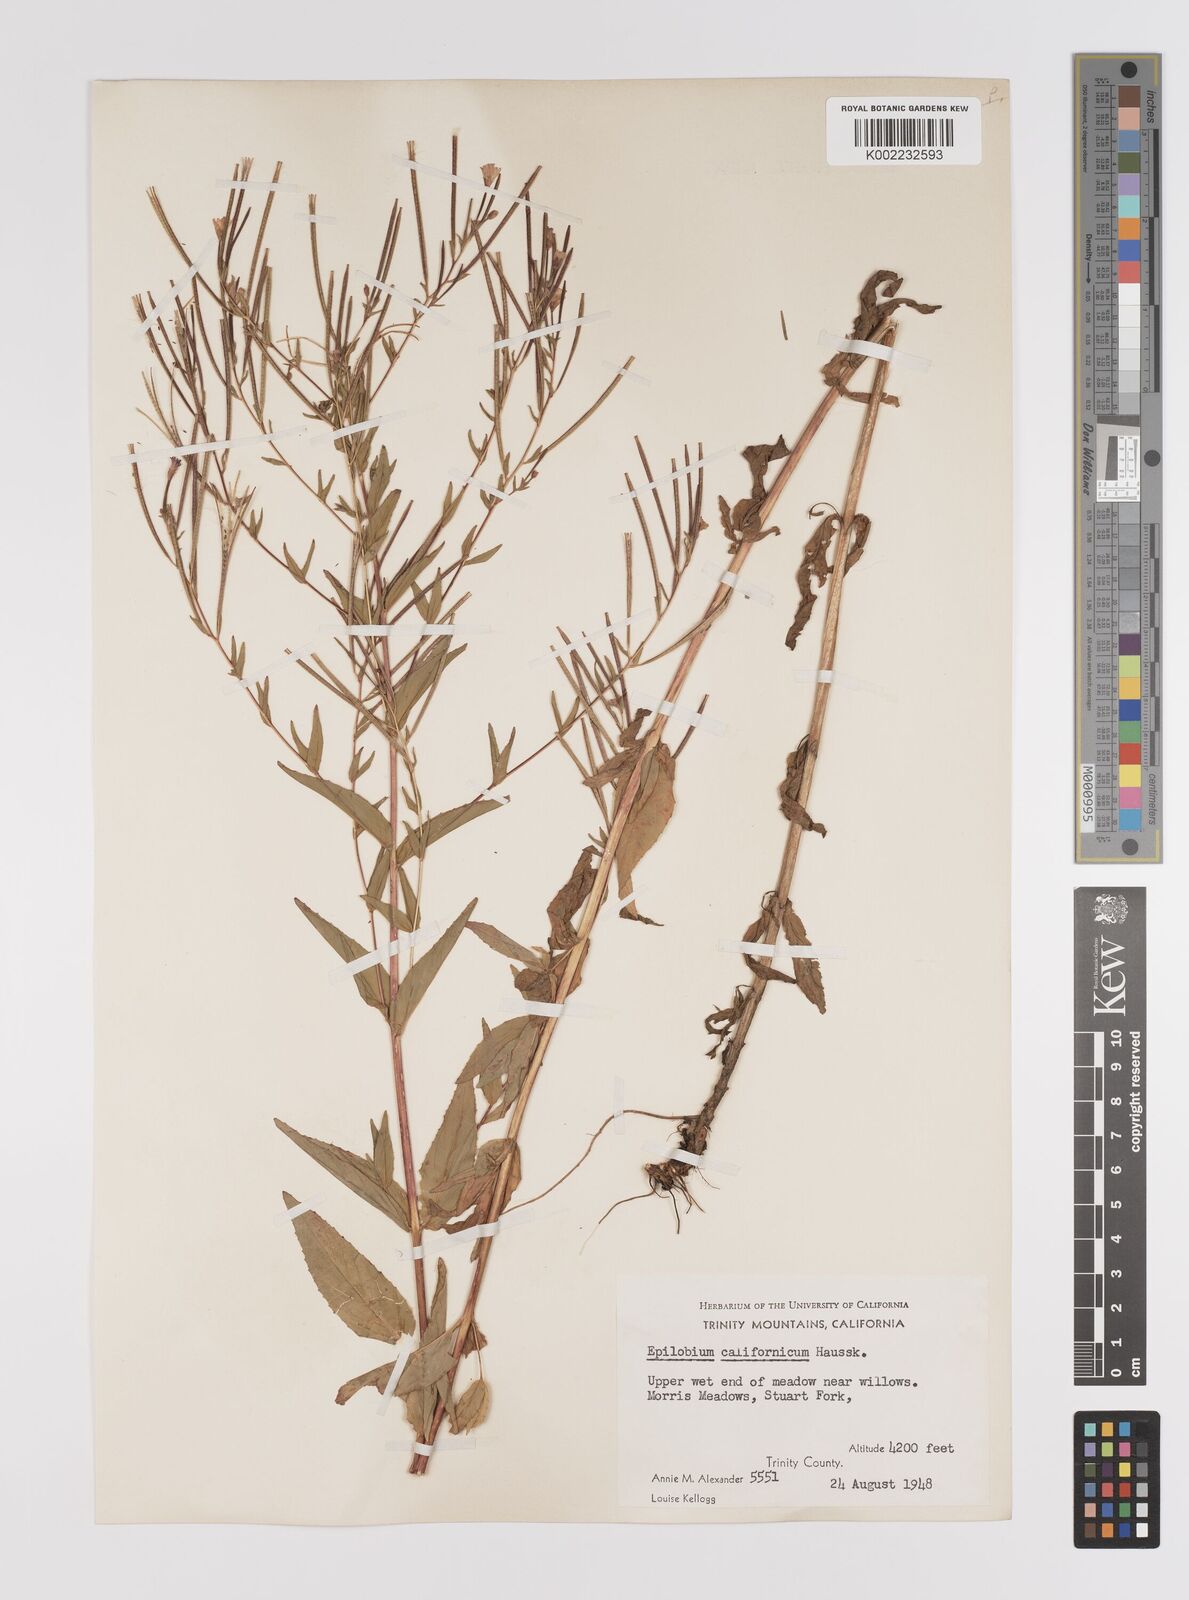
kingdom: Plantae
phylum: Tracheophyta
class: Magnoliopsida
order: Myrtales
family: Onagraceae
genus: Epilobium
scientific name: Epilobium ciliatum
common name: American willowherb
